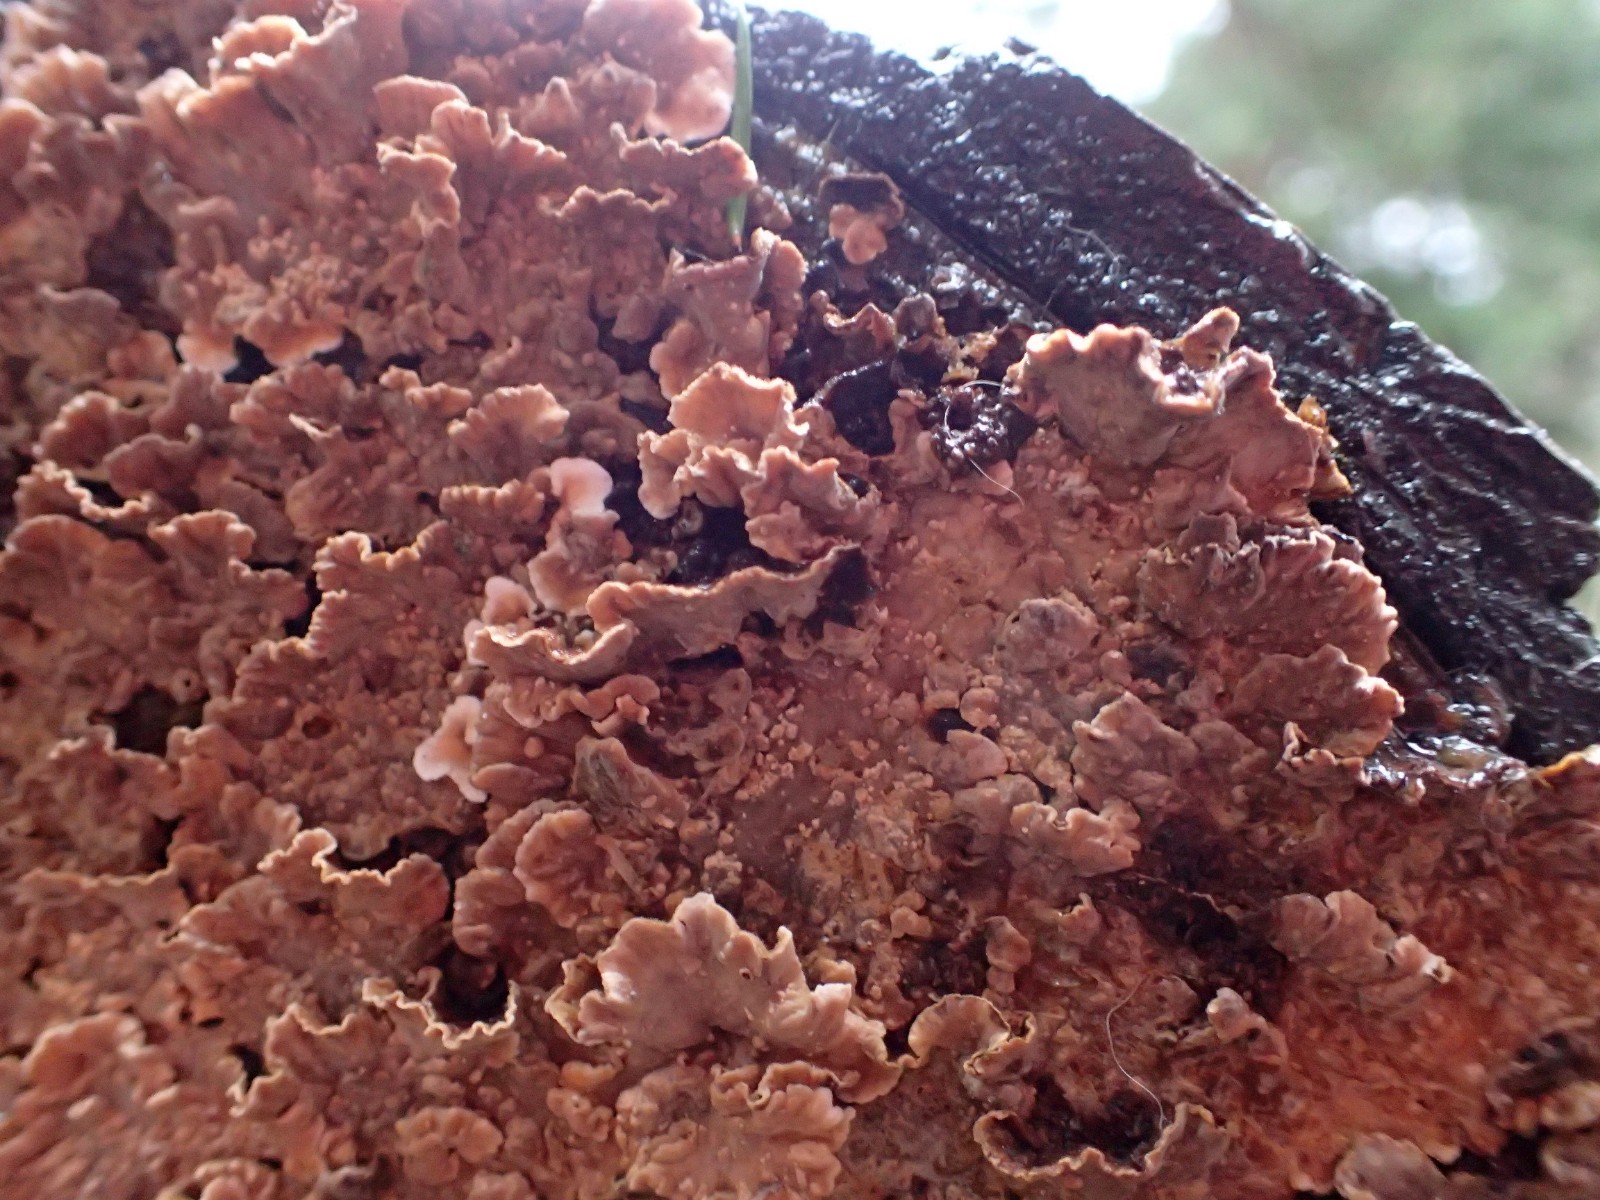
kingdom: Fungi
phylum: Basidiomycota
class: Agaricomycetes
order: Russulales
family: Stereaceae
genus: Stereum
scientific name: Stereum sanguinolentum
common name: blødende lædersvamp
